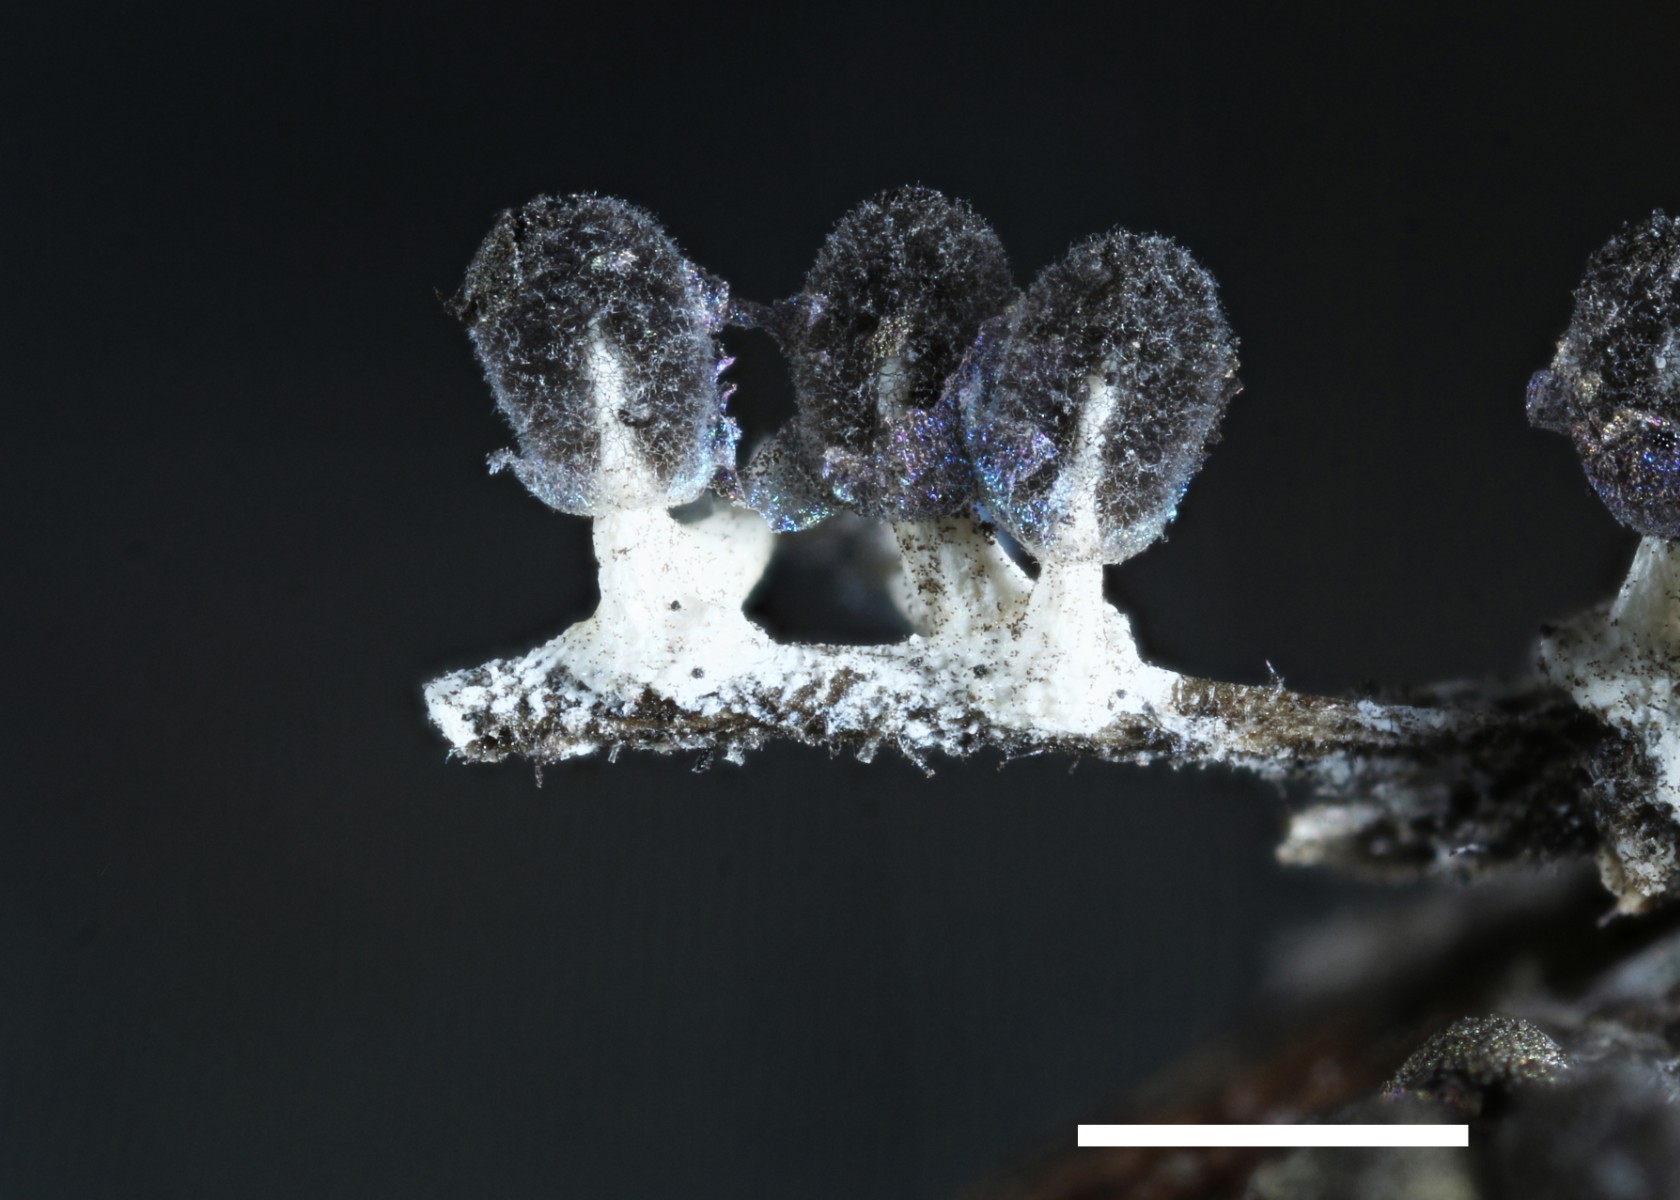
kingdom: Protozoa
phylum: Mycetozoa
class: Myxomycetes
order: Physarales
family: Didymiaceae
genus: Diachea
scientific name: Diachea leucopodia
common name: hvidstokket metalknop
